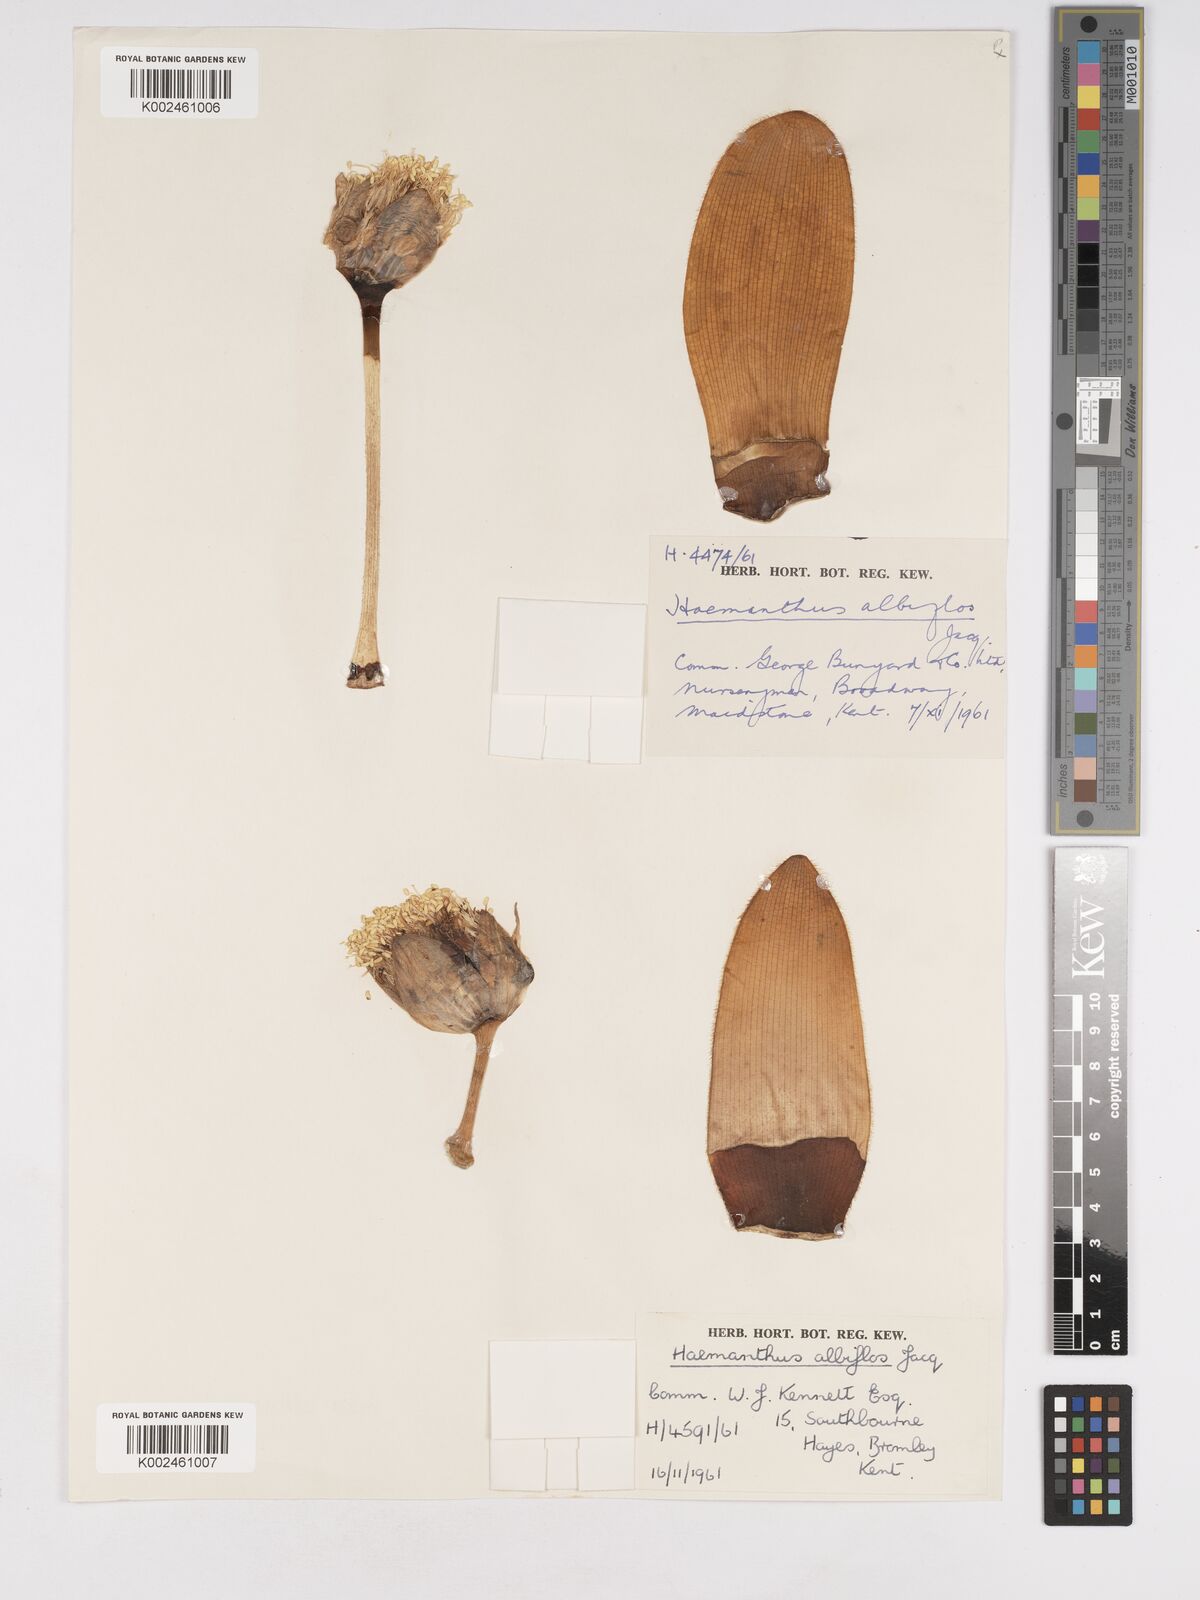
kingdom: Plantae
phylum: Tracheophyta
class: Liliopsida
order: Asparagales
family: Amaryllidaceae
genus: Haemanthus
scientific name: Haemanthus albiflos
